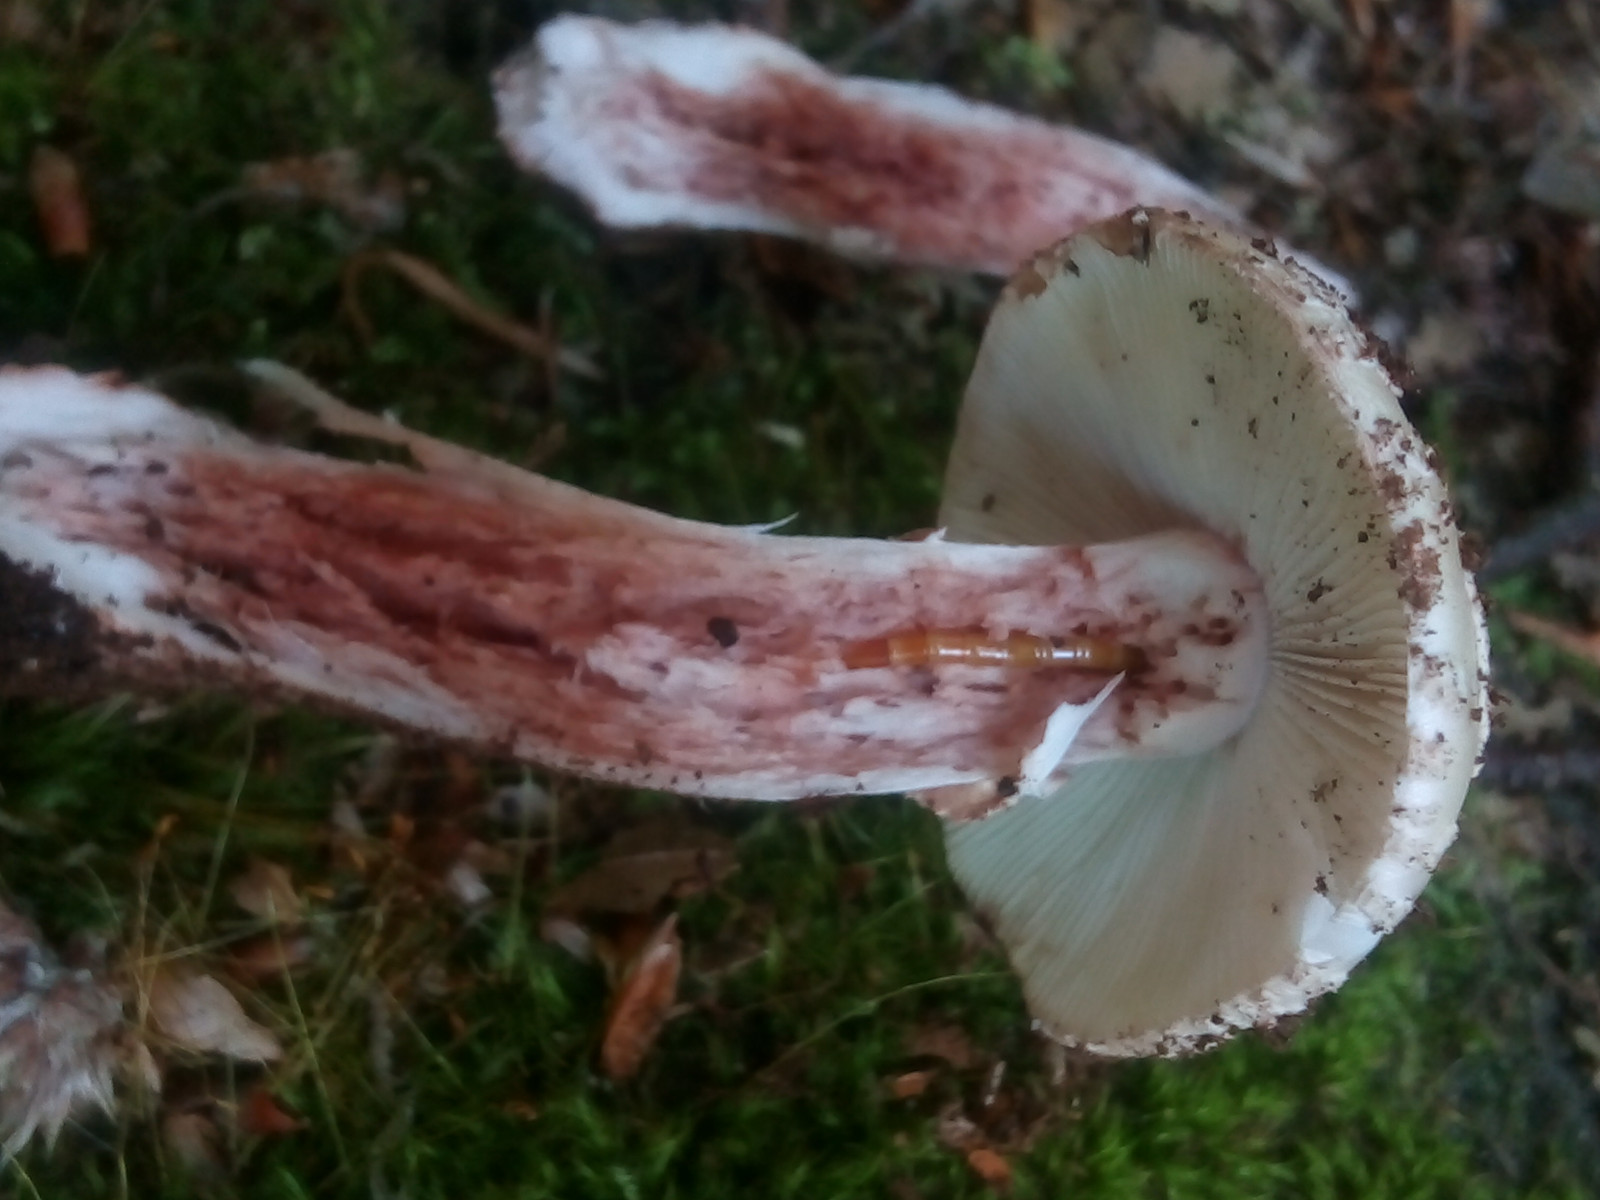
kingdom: Fungi
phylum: Basidiomycota
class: Agaricomycetes
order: Agaricales
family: Amanitaceae
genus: Amanita
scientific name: Amanita rubescens
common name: rødmende fluesvamp
